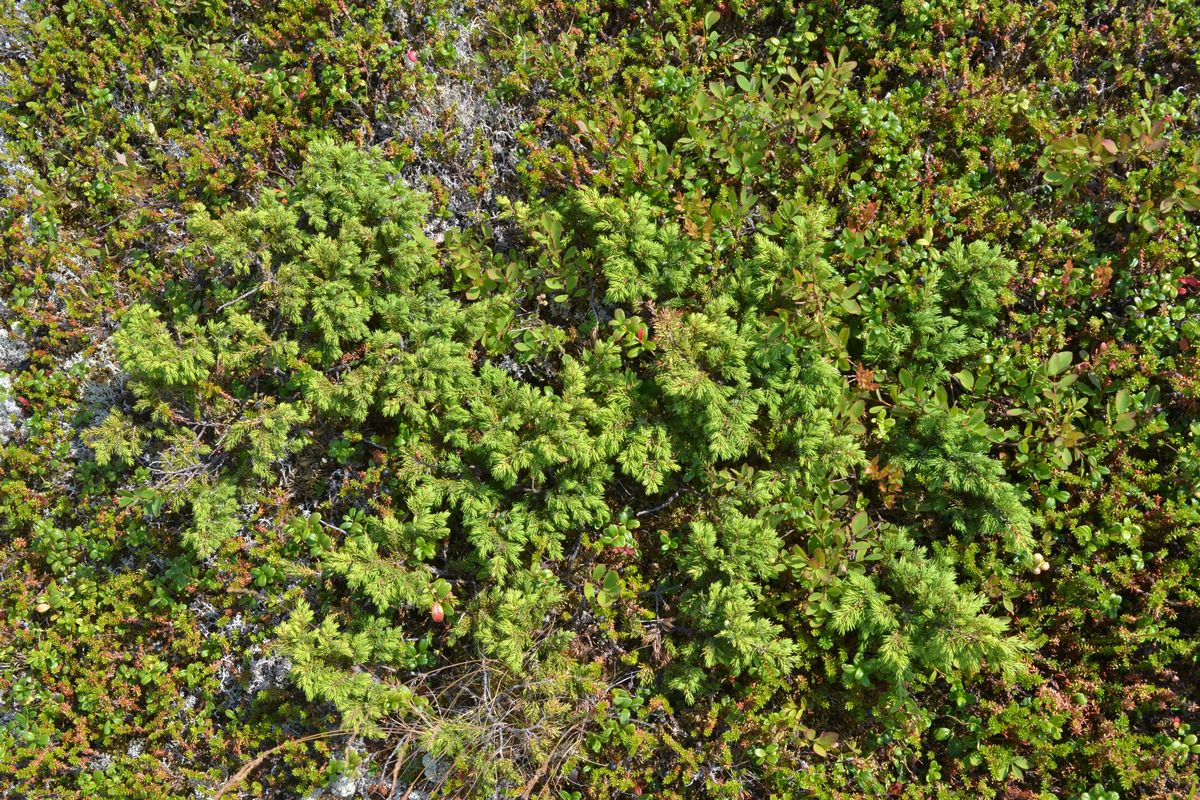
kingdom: Plantae
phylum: Tracheophyta
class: Pinopsida
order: Pinales
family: Cupressaceae
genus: Juniperus
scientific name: Juniperus communis
